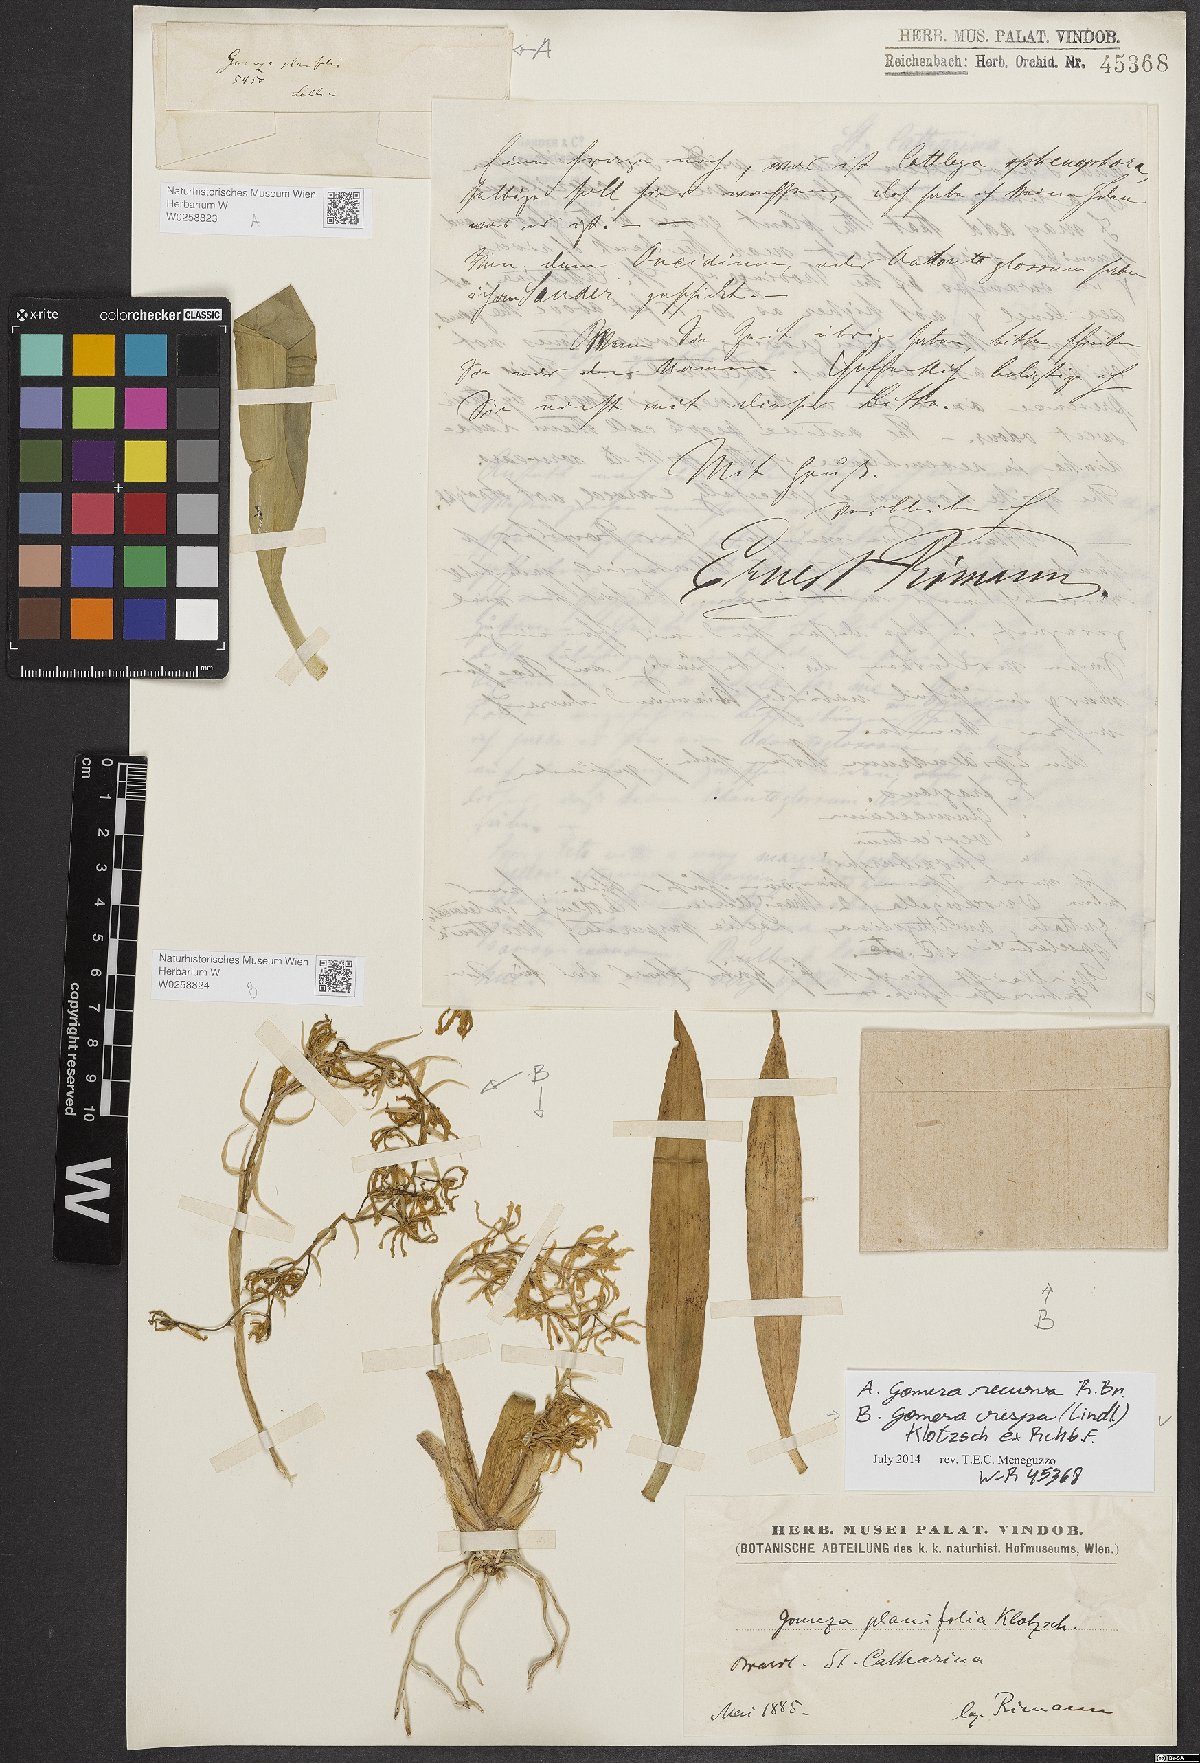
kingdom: Plantae
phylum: Tracheophyta
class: Liliopsida
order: Asparagales
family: Orchidaceae
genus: Gomesa
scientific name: Gomesa recurva
